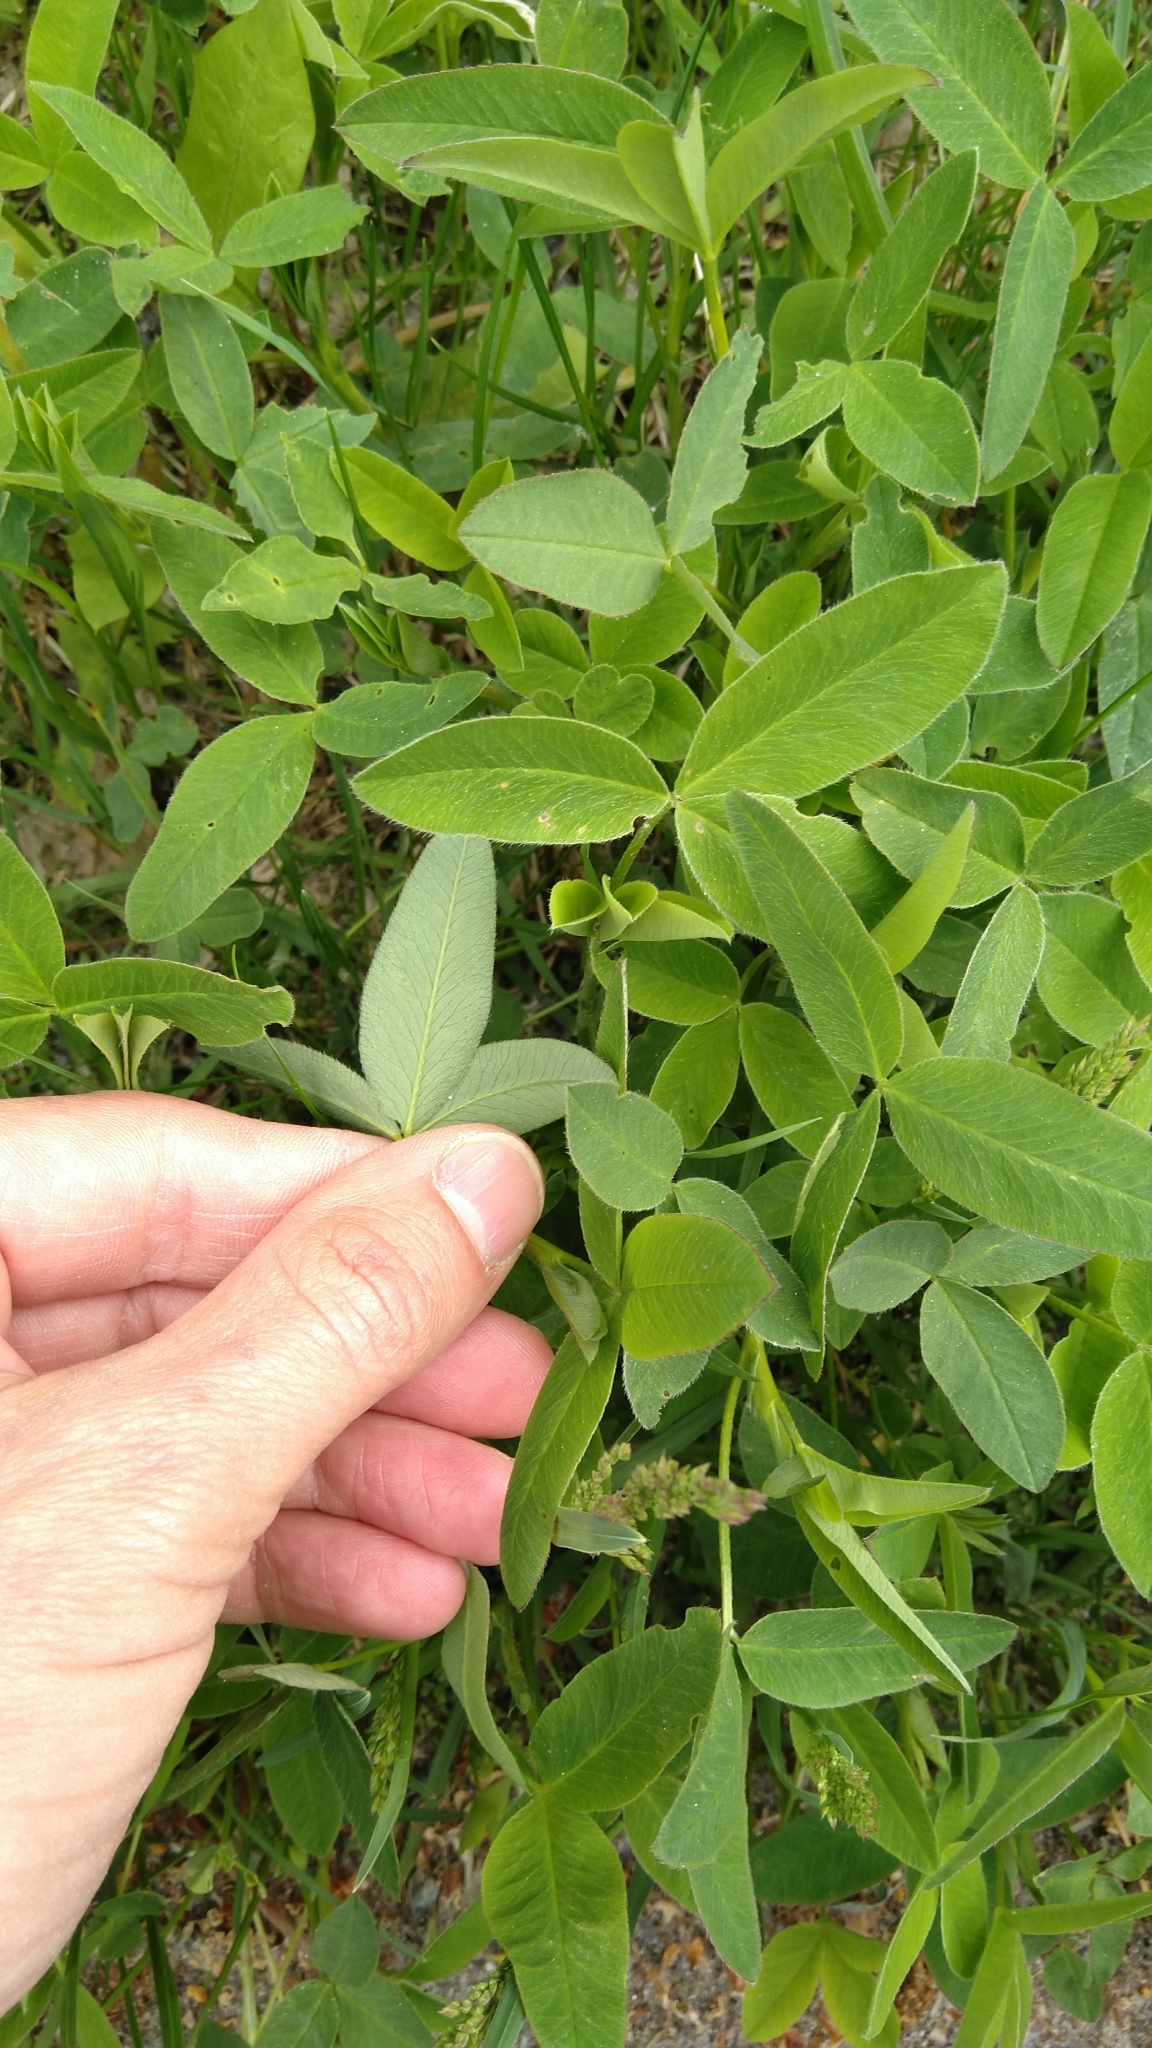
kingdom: Plantae
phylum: Tracheophyta
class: Magnoliopsida
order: Fabales
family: Fabaceae
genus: Trifolium
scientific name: Trifolium medium
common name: Zigzag clover
